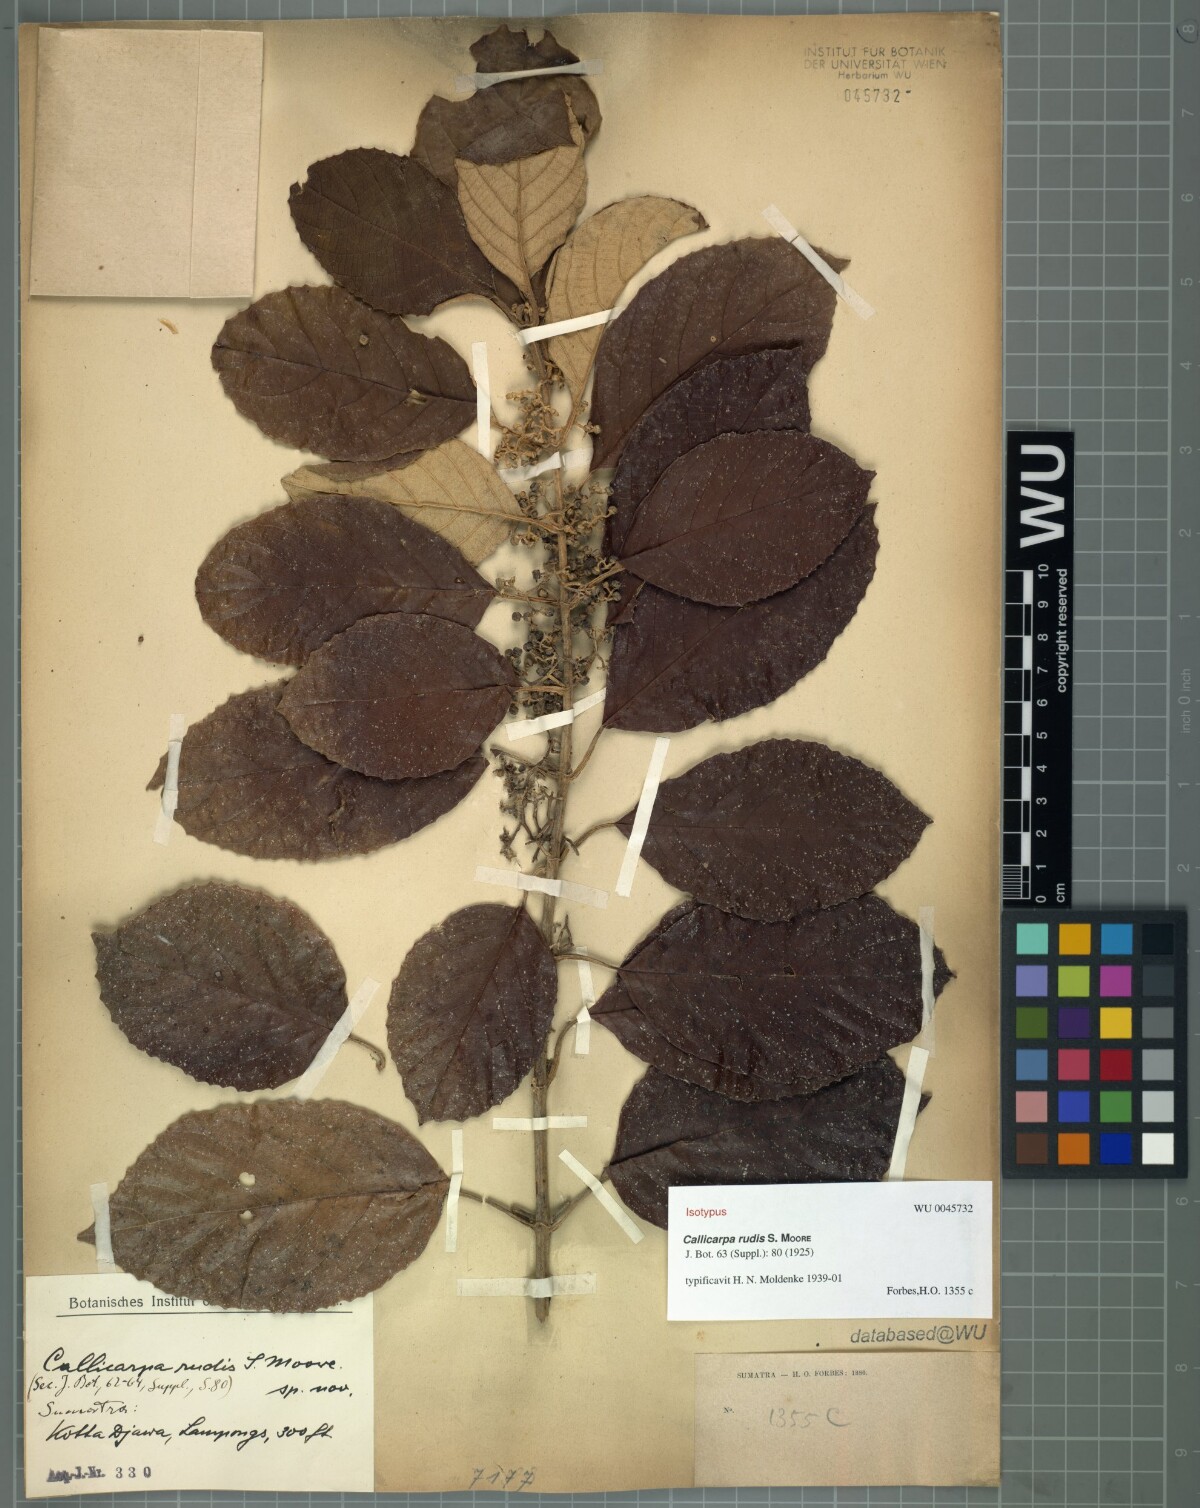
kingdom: Plantae
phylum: Tracheophyta
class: Magnoliopsida
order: Lamiales
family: Lamiaceae
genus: Callicarpa
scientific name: Callicarpa furfuracea
